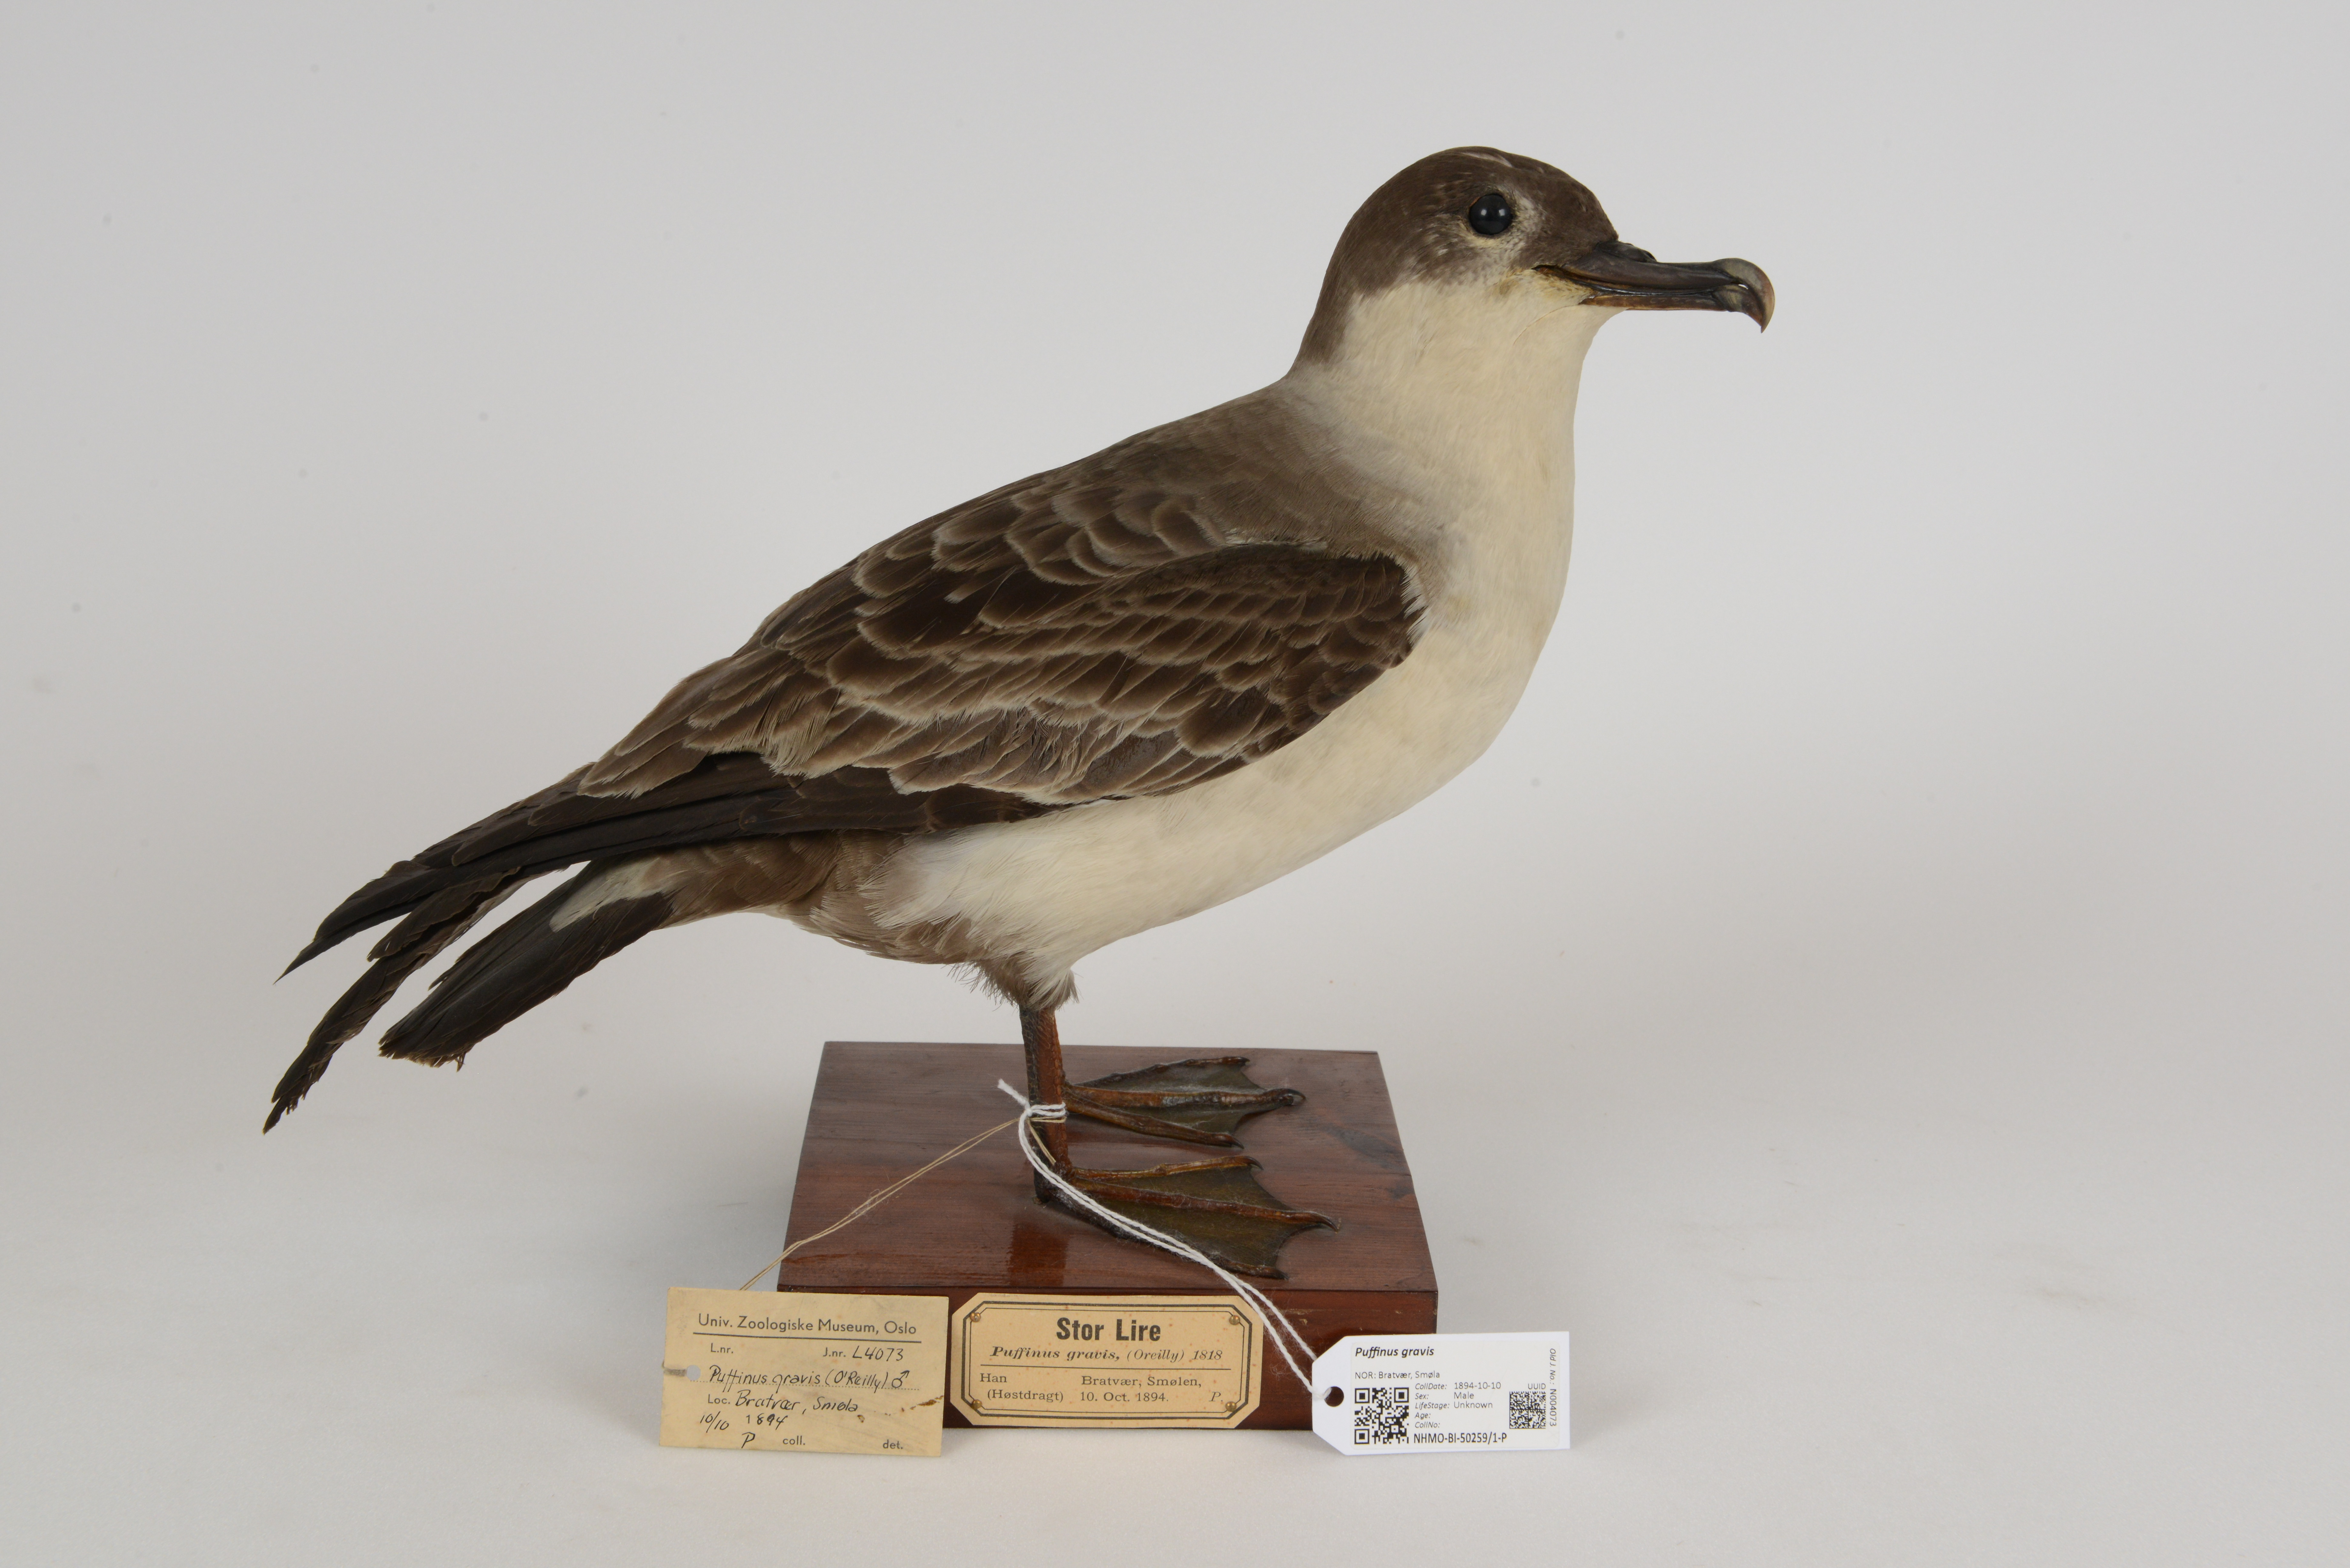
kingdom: Animalia
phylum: Chordata
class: Aves
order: Procellariiformes
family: Procellariidae
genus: Puffinus
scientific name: Puffinus gravis
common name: Great shearwater
